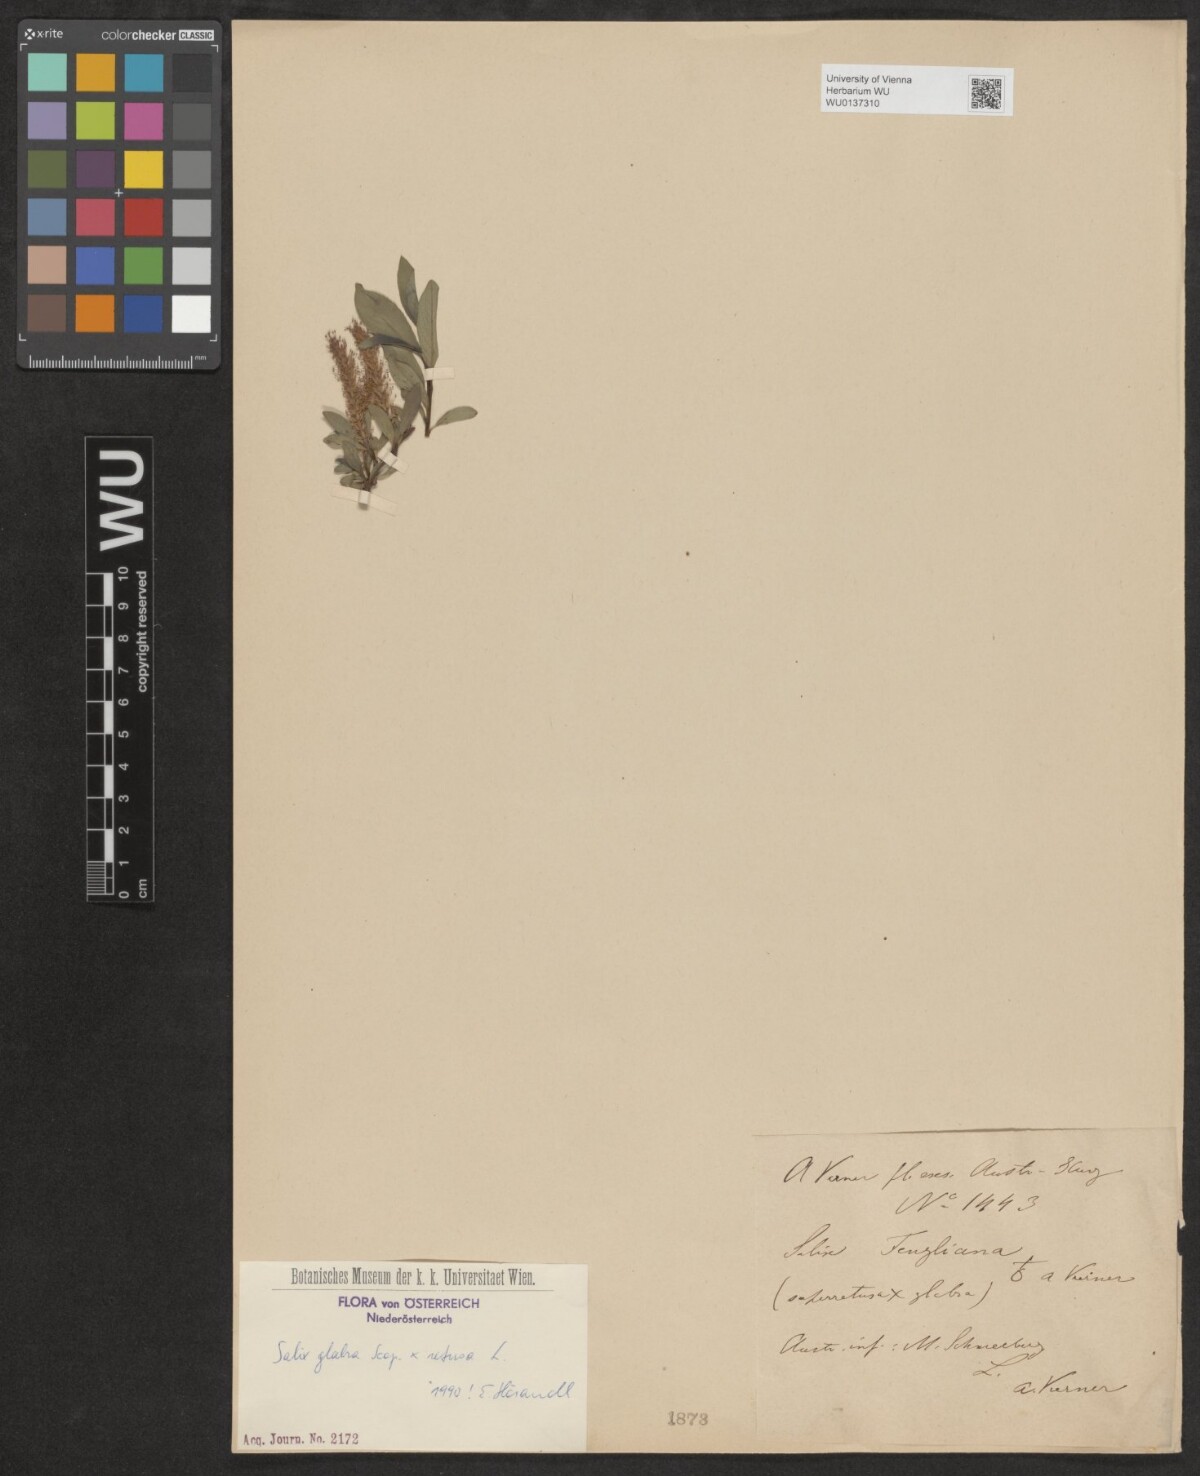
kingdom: Plantae
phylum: Tracheophyta
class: Magnoliopsida
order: Malpighiales
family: Salicaceae
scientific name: Salicaceae
